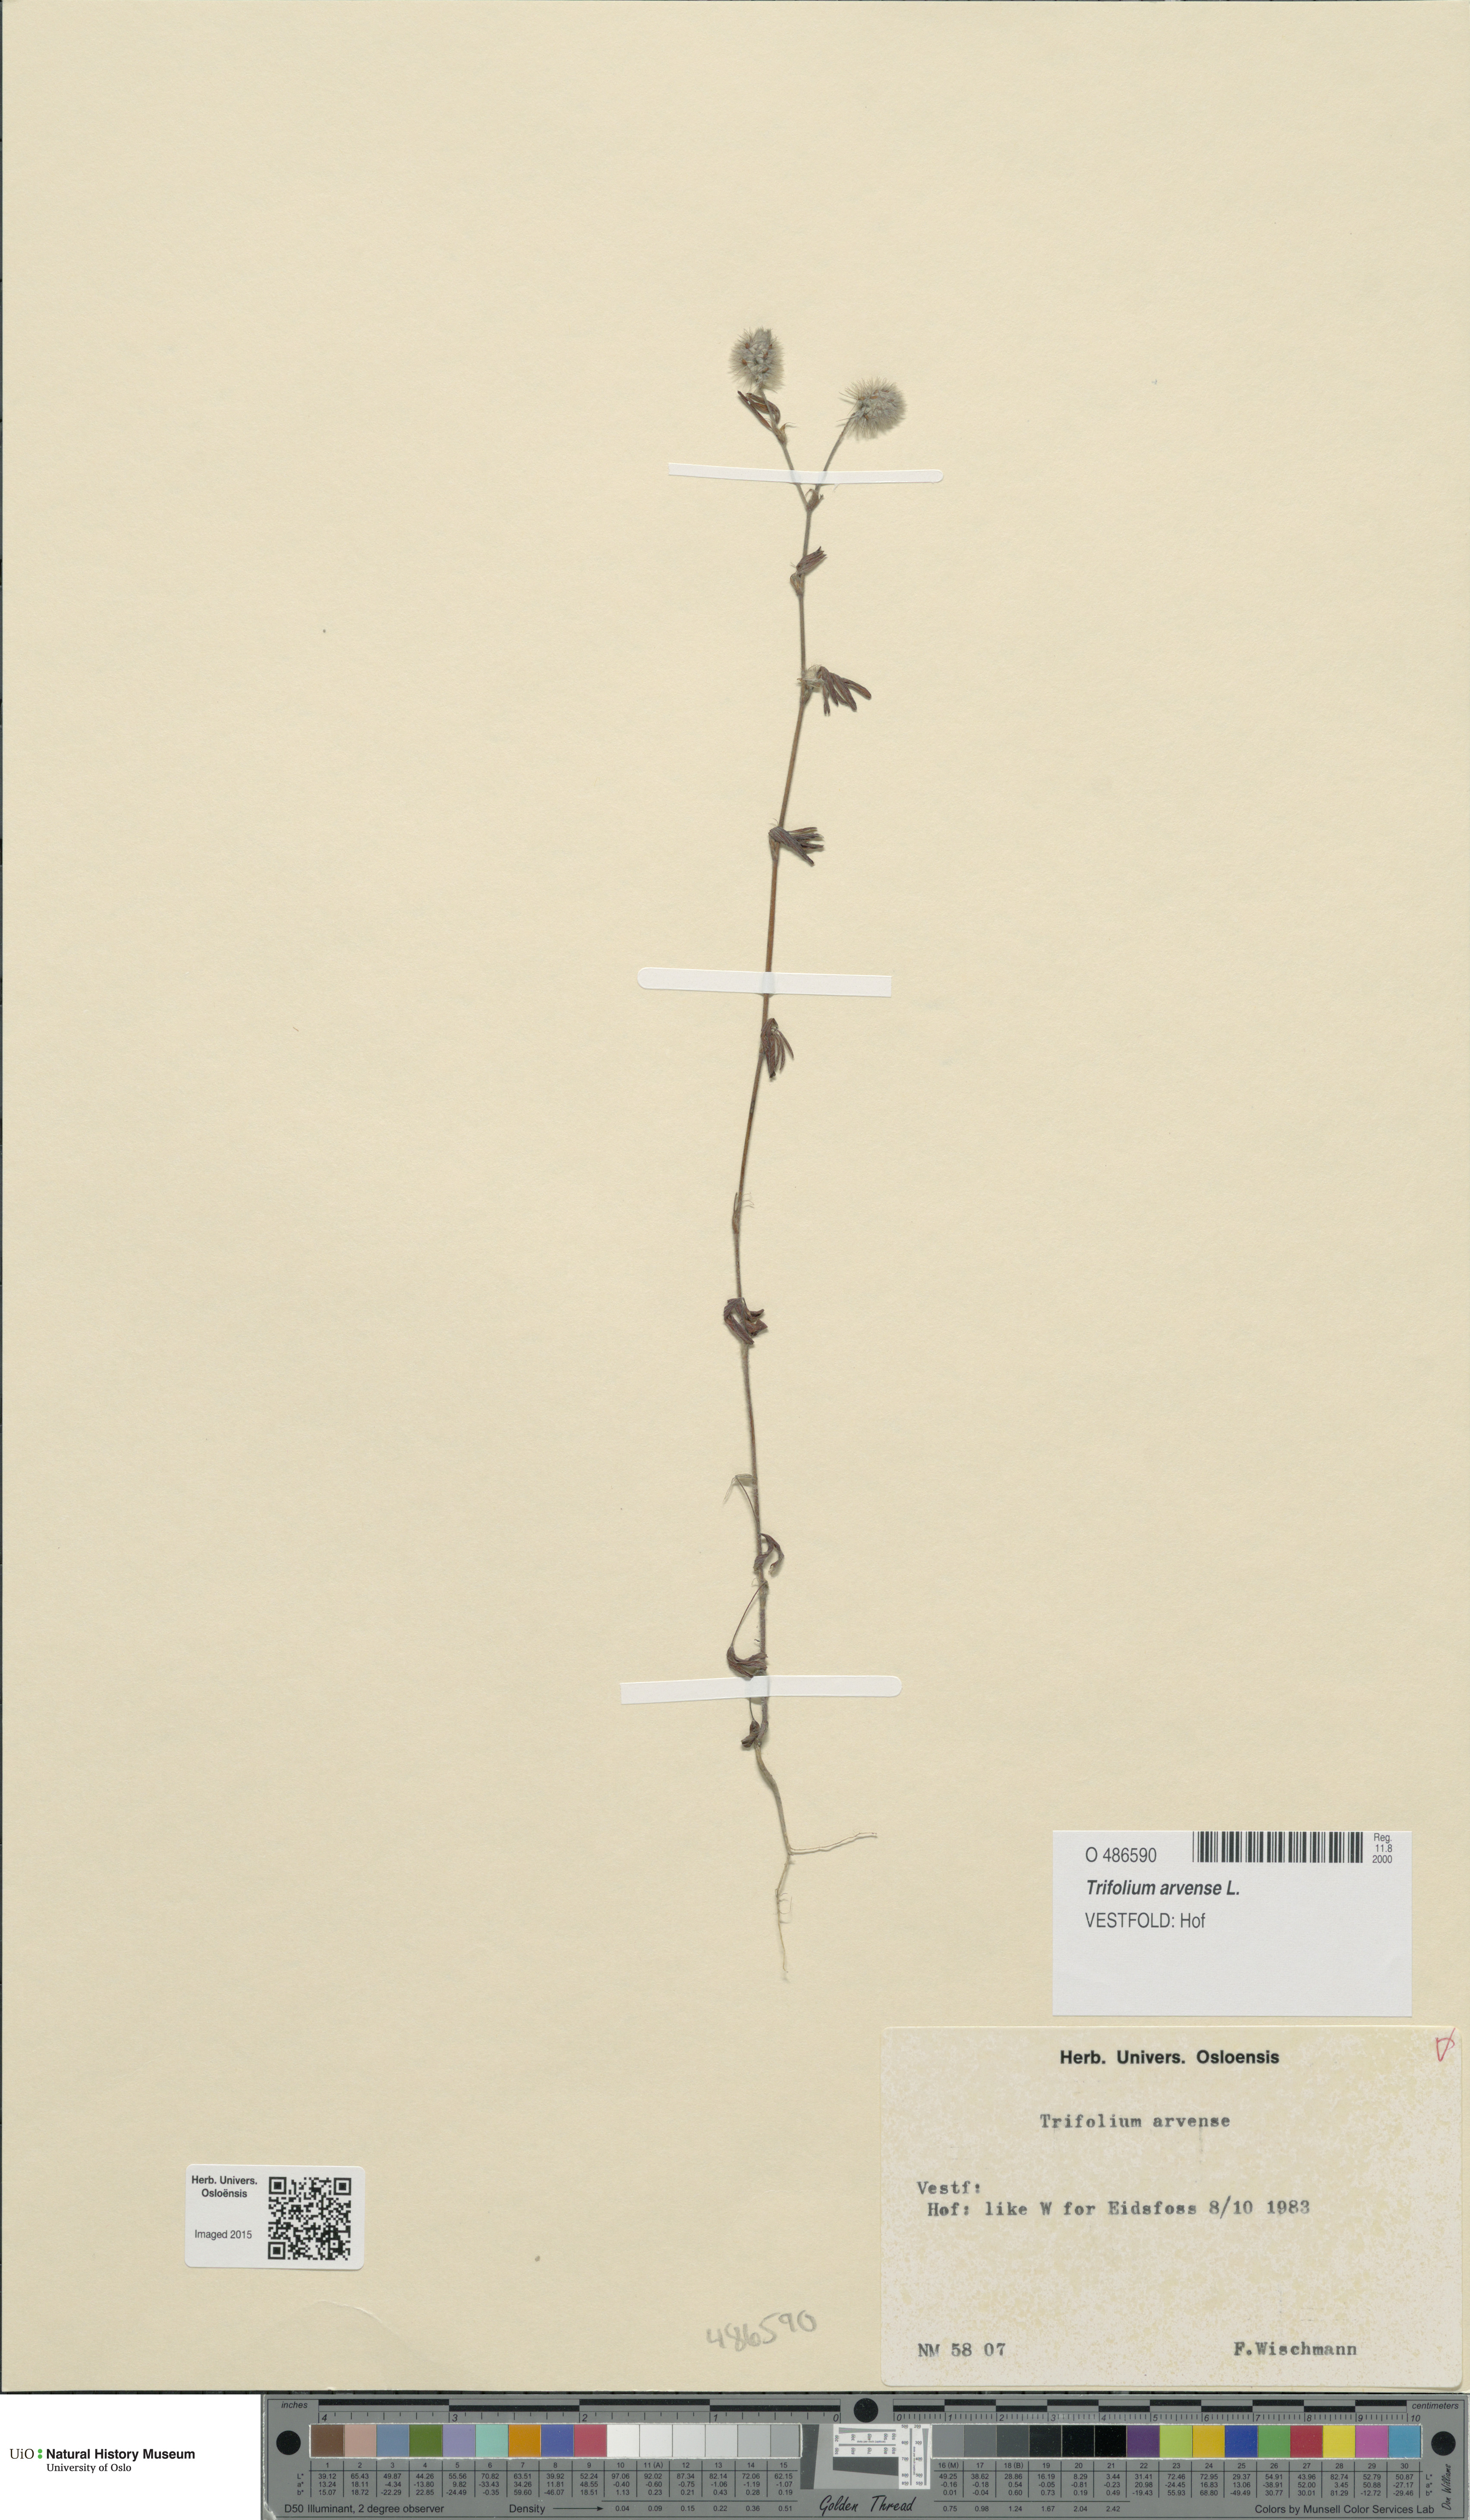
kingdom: Plantae
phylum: Tracheophyta
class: Magnoliopsida
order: Fabales
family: Fabaceae
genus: Trifolium
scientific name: Trifolium arvense
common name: Hare's-foot clover
